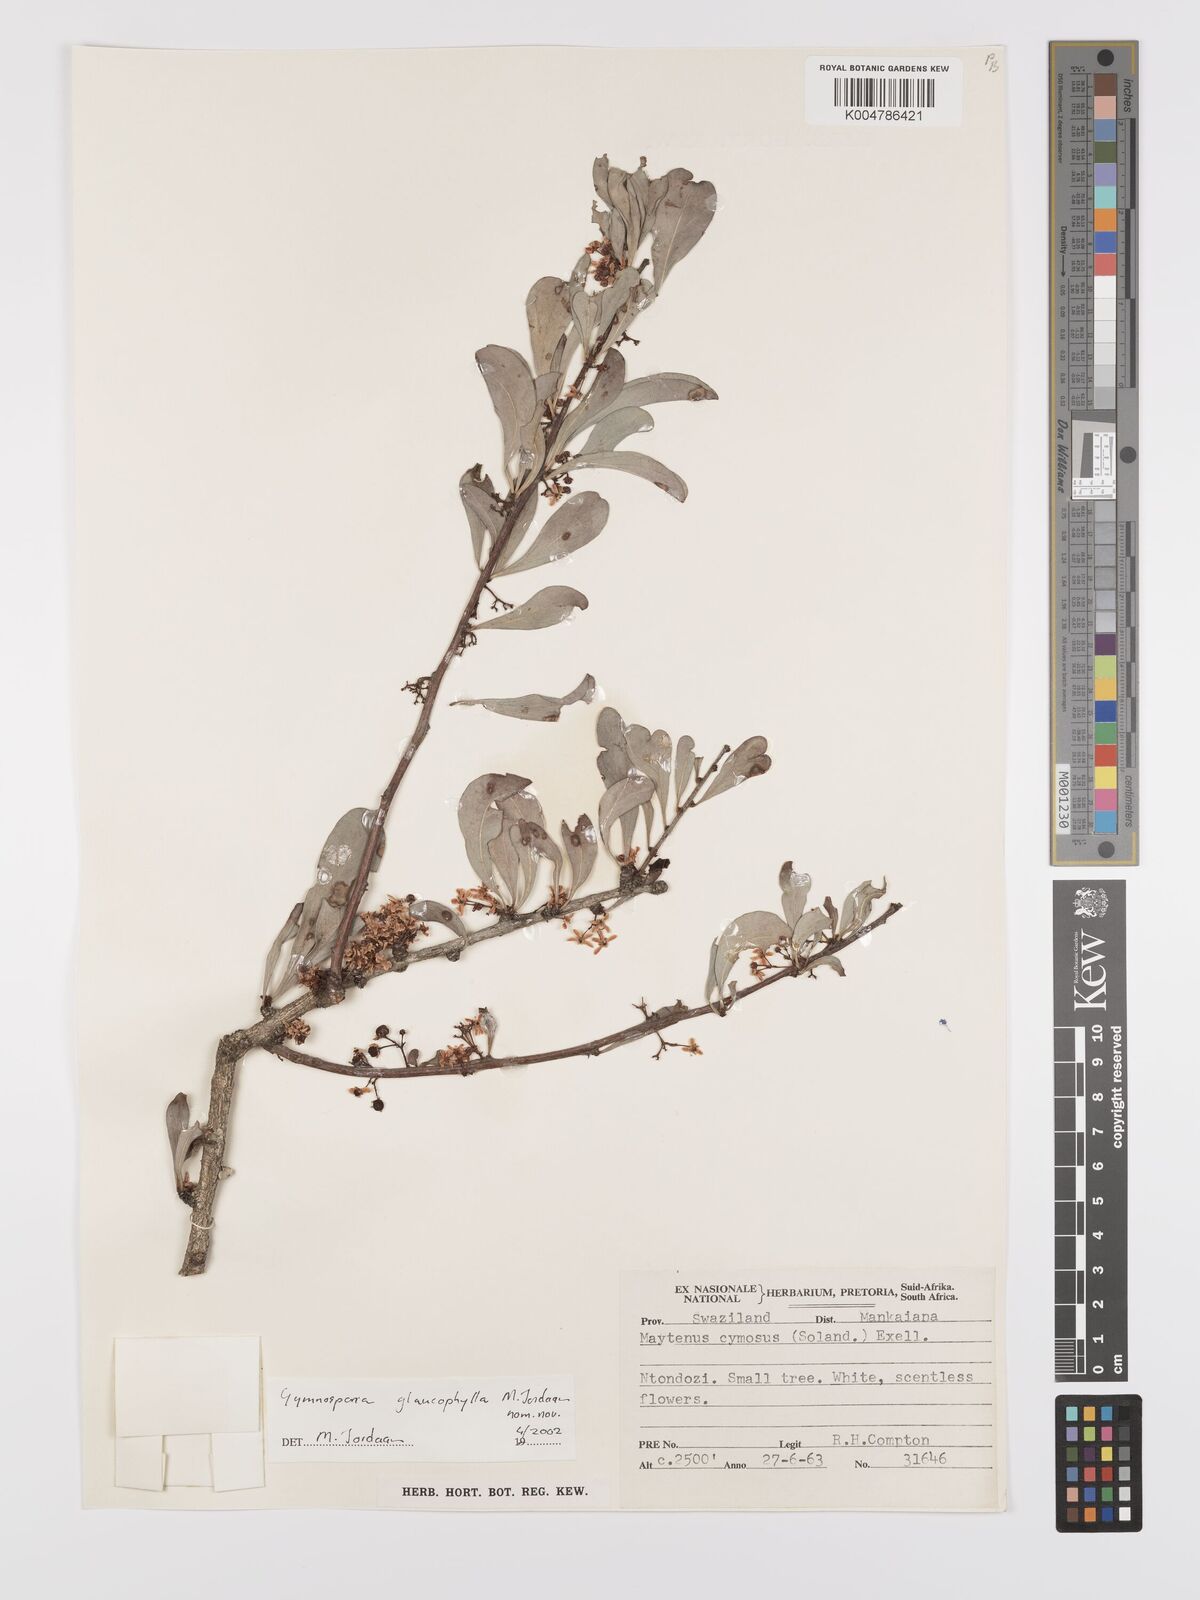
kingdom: Plantae
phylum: Tracheophyta
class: Magnoliopsida
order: Celastrales
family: Celastraceae
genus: Gymnosporia
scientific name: Gymnosporia glaucophylla
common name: Blue spike-thorn
